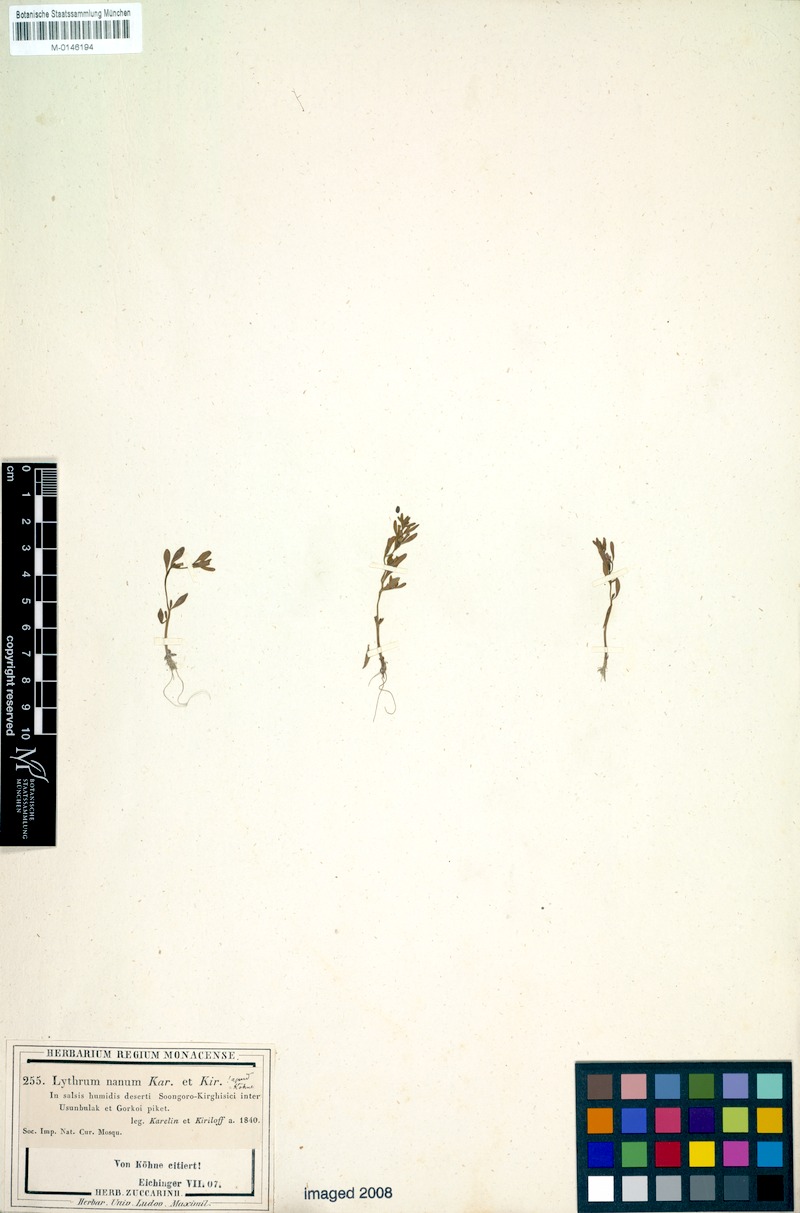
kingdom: Plantae
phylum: Tracheophyta
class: Magnoliopsida
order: Myrtales
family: Lythraceae
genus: Lythrum
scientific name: Lythrum nanum
